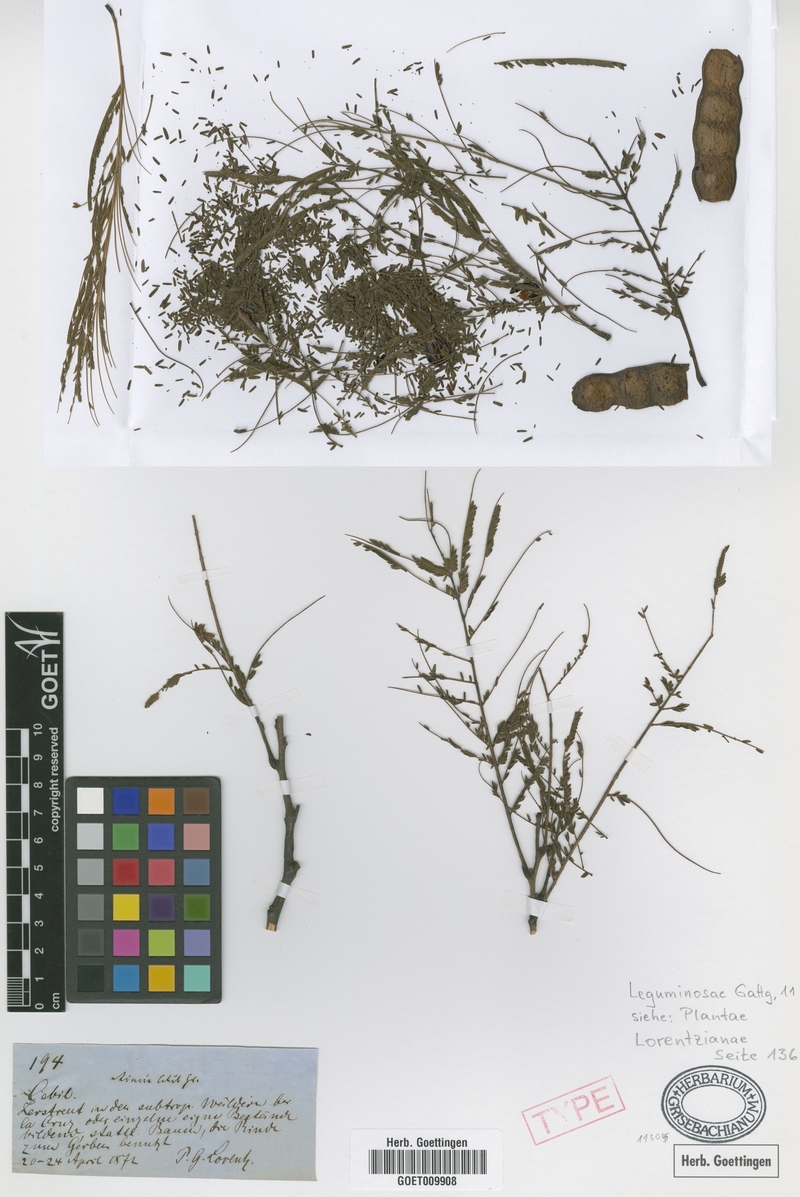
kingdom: Plantae
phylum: Tracheophyta
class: Magnoliopsida
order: Fabales
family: Fabaceae
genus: Anadenanthera
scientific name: Anadenanthera colubrina
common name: Curupay
